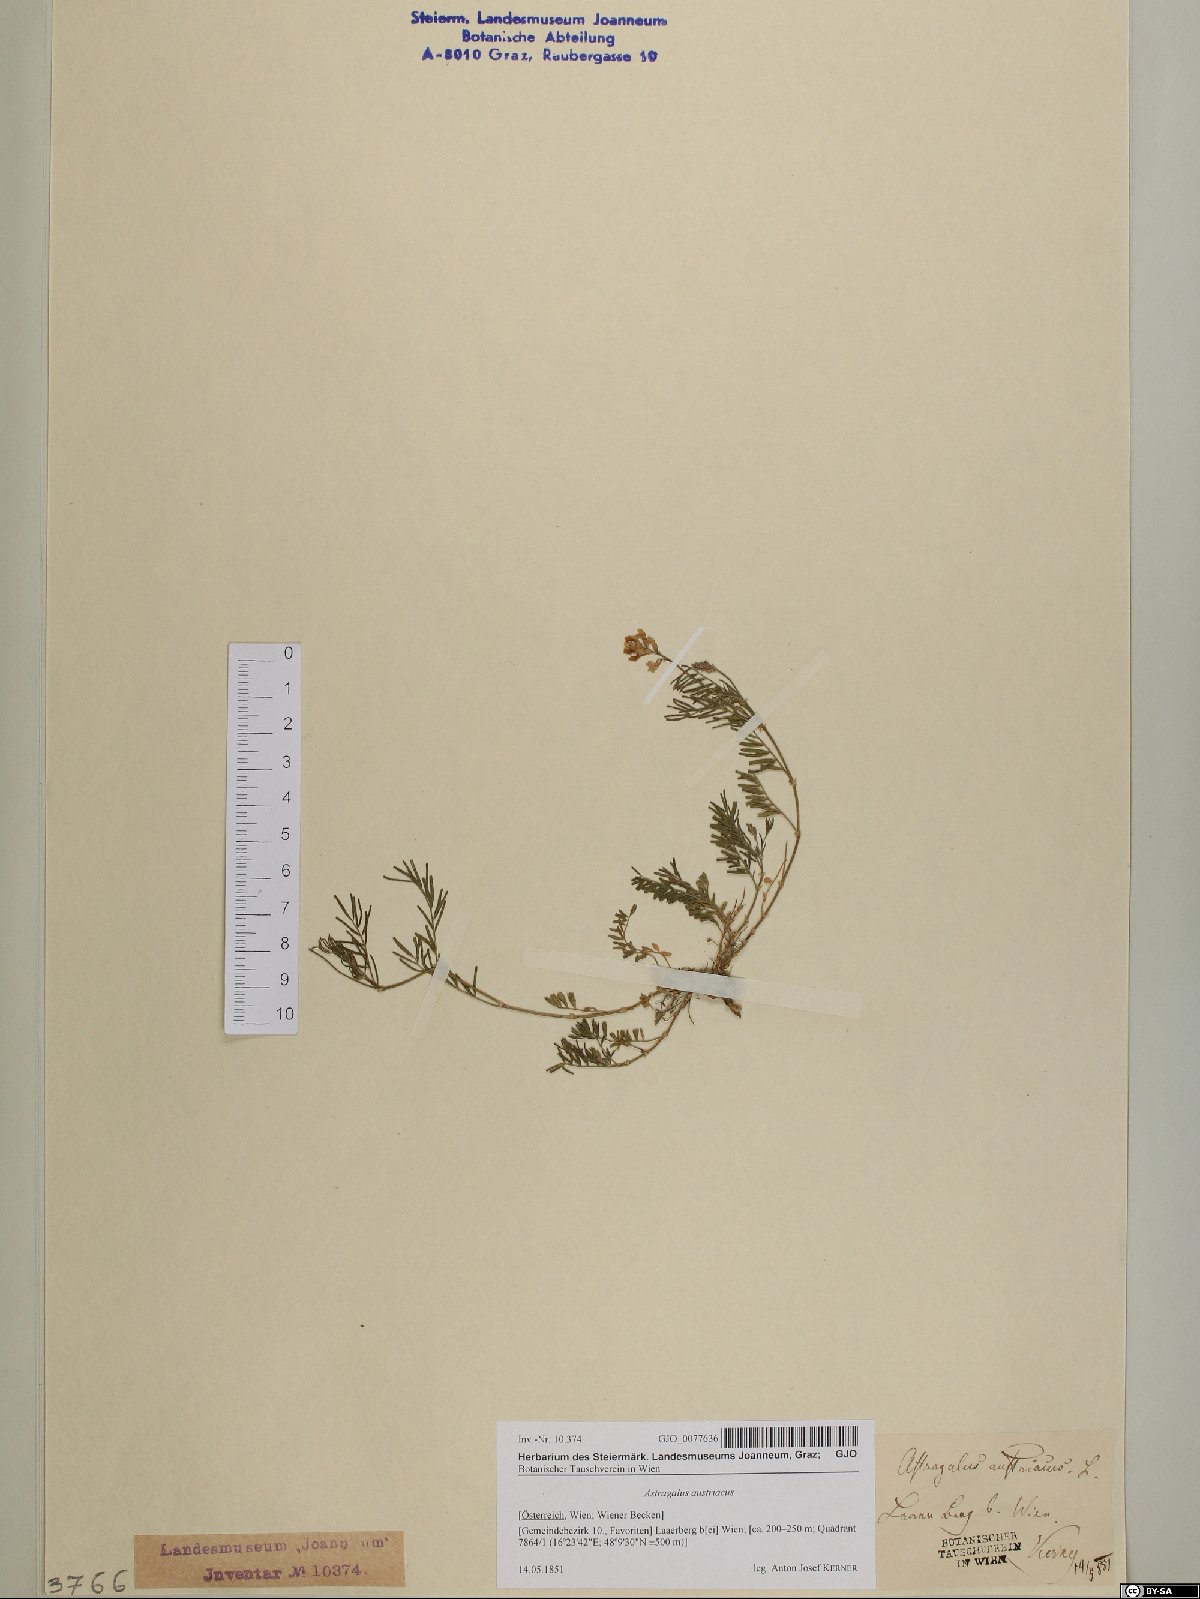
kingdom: Plantae
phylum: Tracheophyta
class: Magnoliopsida
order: Fabales
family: Fabaceae
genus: Astragalus
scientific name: Astragalus austriacus
